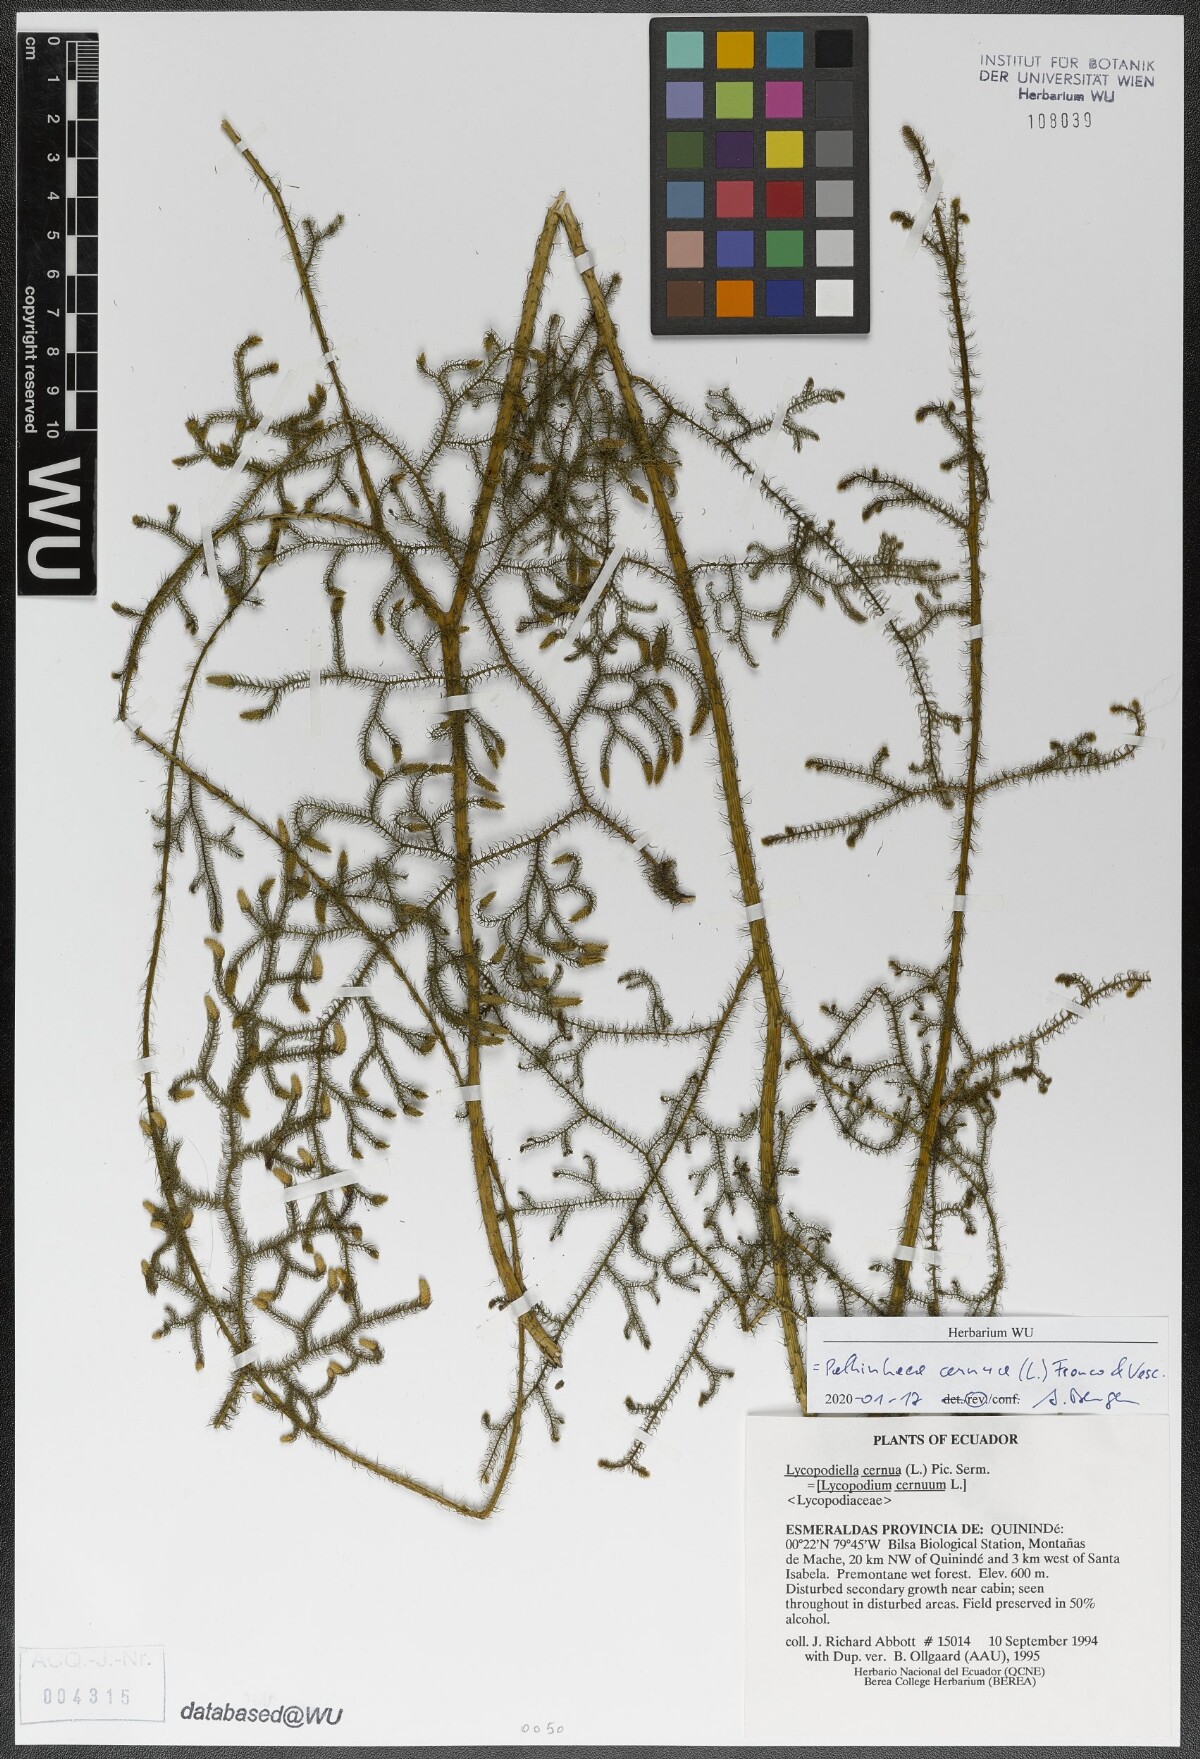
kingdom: Plantae
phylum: Tracheophyta
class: Lycopodiopsida
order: Lycopodiales
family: Lycopodiaceae
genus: Palhinhaea
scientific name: Palhinhaea cernua
